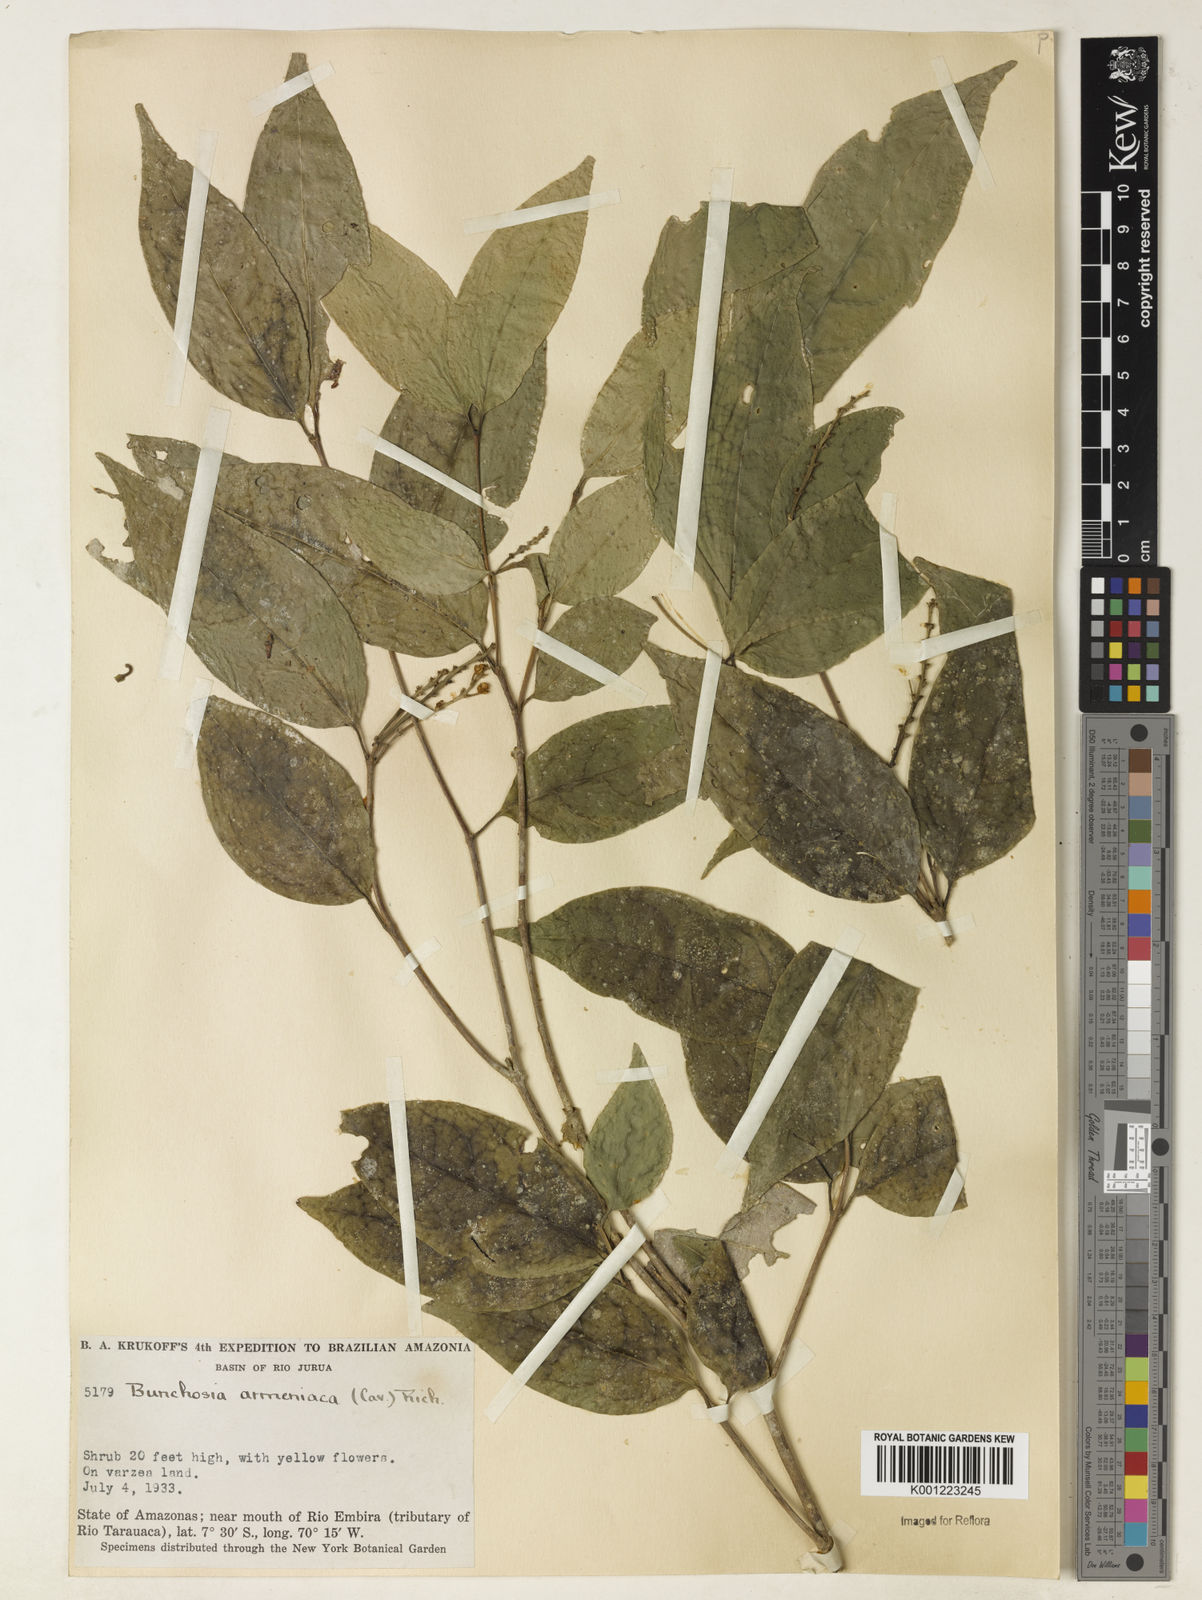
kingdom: Plantae
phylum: Tracheophyta
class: Magnoliopsida
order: Malpighiales
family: Malpighiaceae
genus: Bunchosia
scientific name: Bunchosia armeniaca
